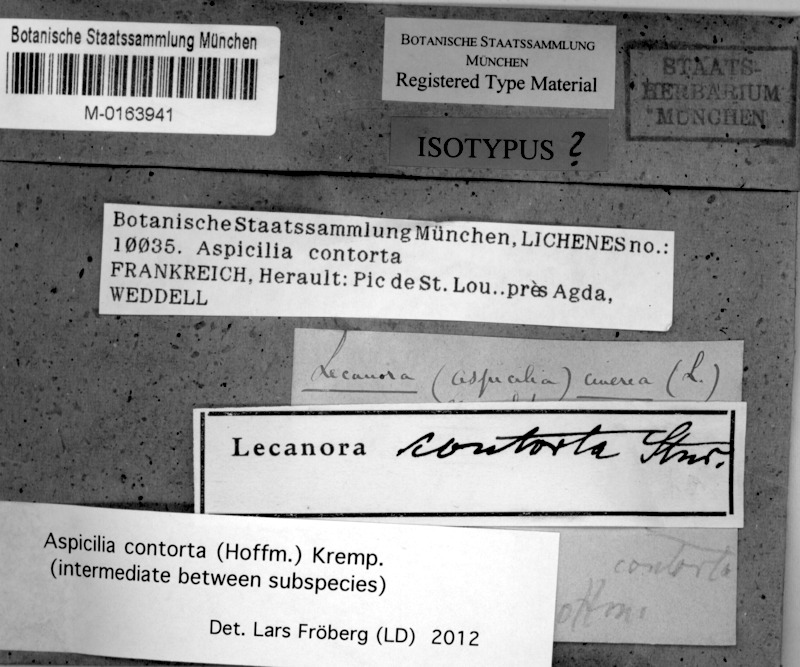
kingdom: Fungi
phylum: Ascomycota
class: Lecanoromycetes
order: Pertusariales
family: Megasporaceae
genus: Circinaria
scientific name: Circinaria contorta
